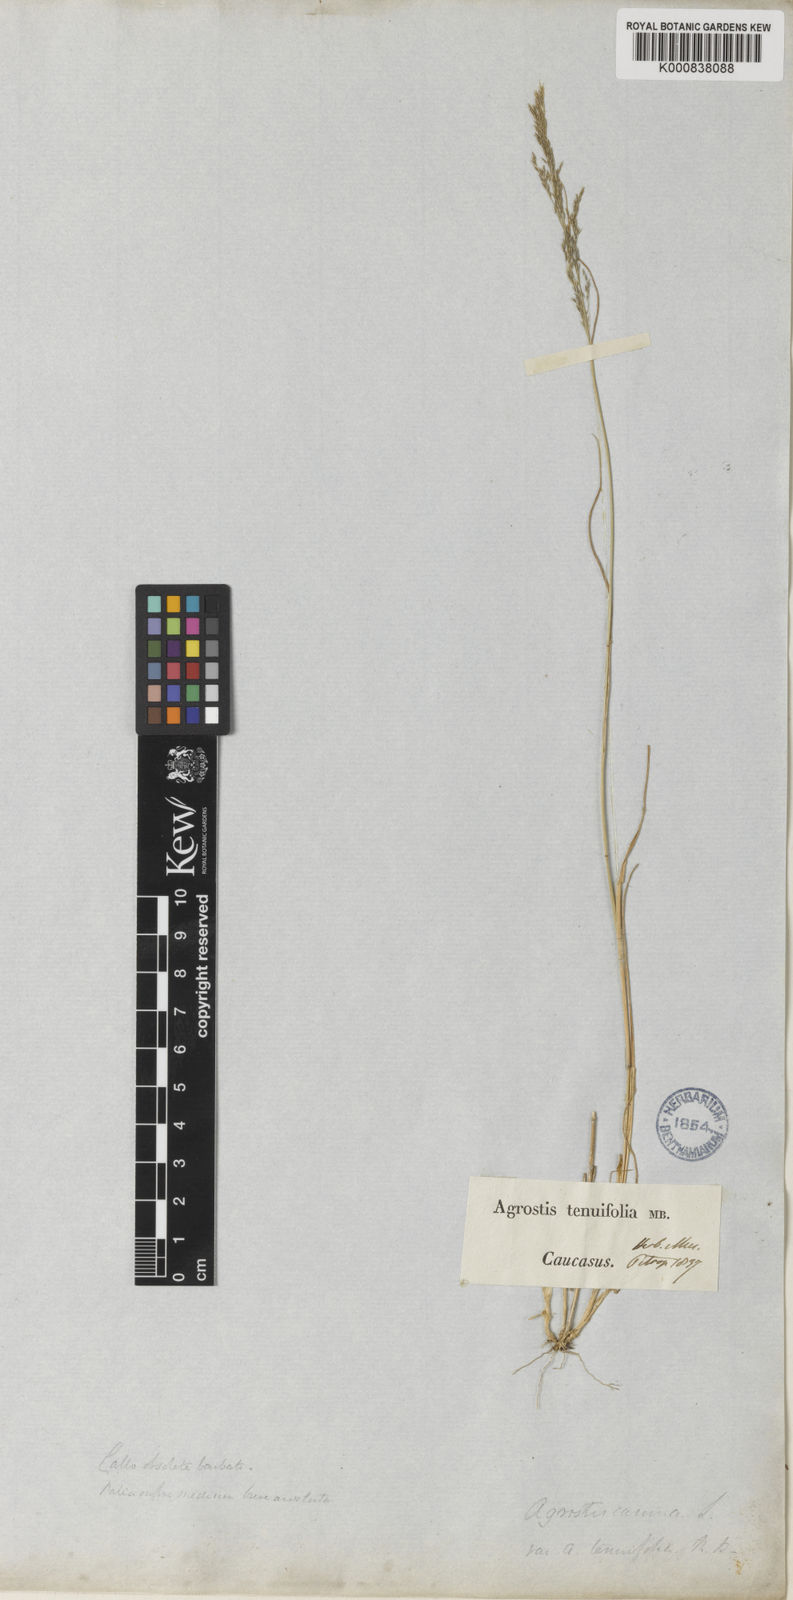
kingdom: Plantae
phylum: Tracheophyta
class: Liliopsida
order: Poales
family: Poaceae
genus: Agrostis
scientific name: Agrostis vinealis
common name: Brown bent
